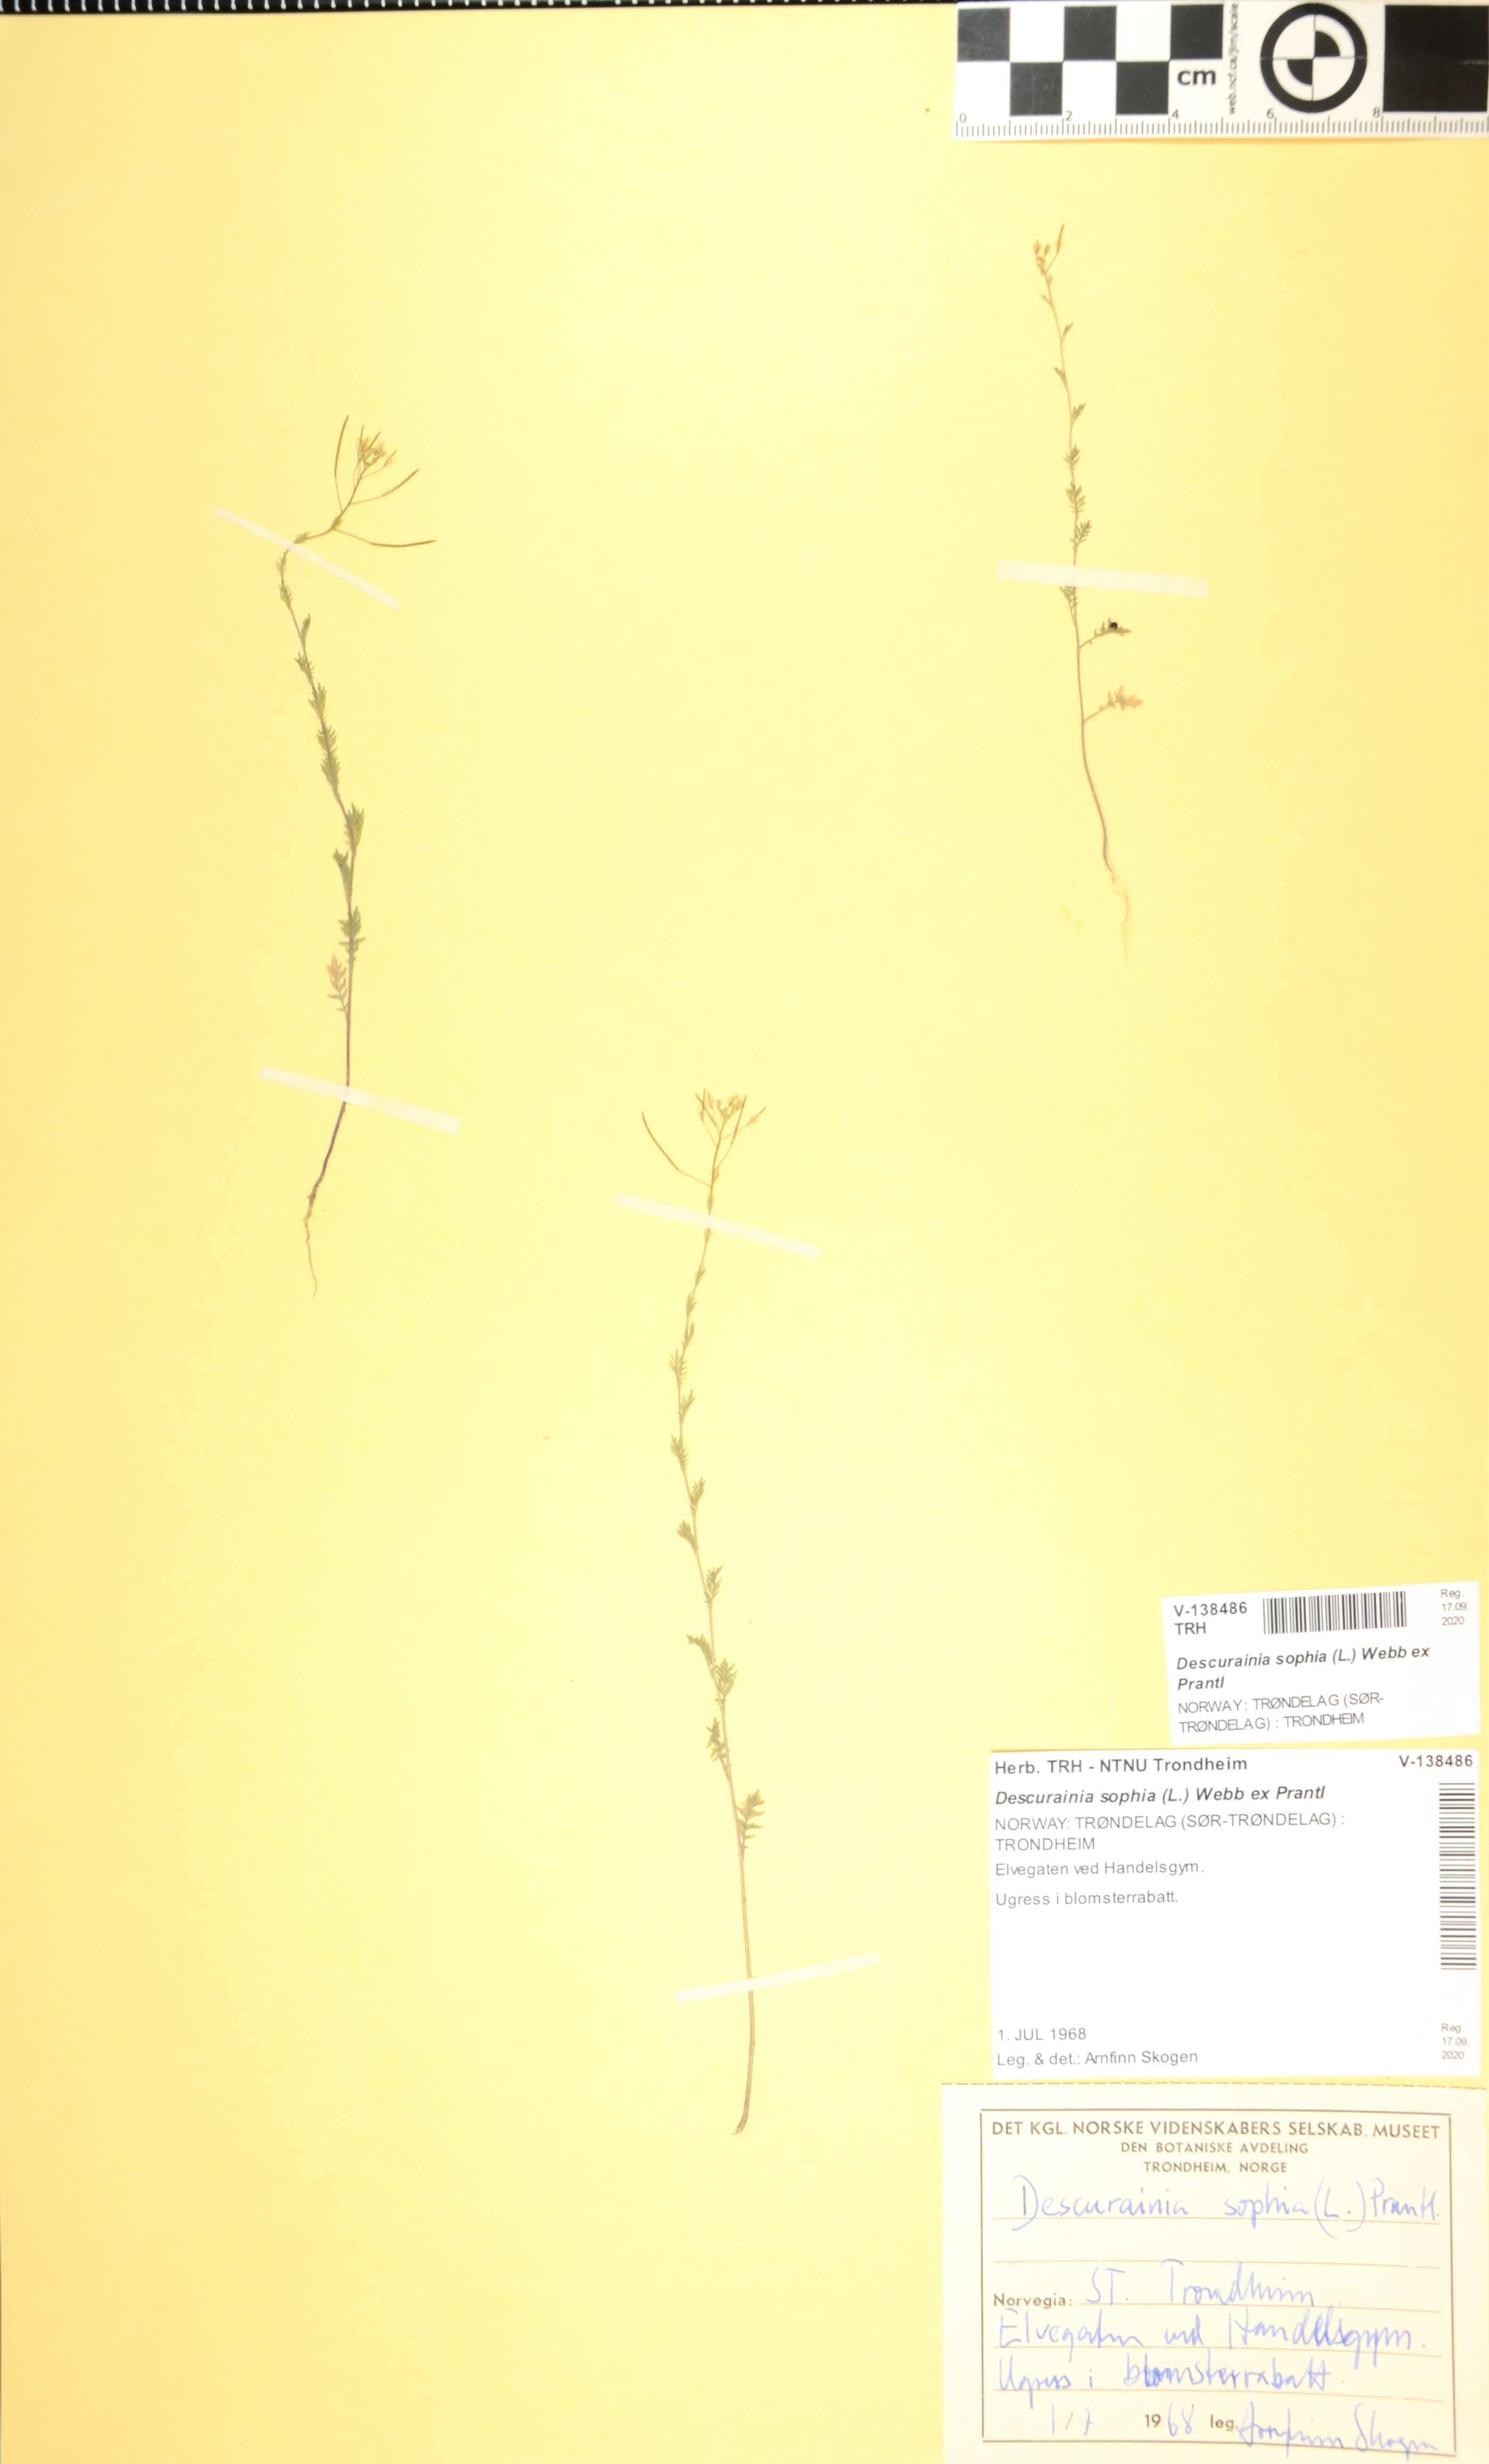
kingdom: Plantae
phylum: Tracheophyta
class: Magnoliopsida
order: Brassicales
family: Brassicaceae
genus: Descurainia
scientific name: Descurainia sophia
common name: Flixweed
